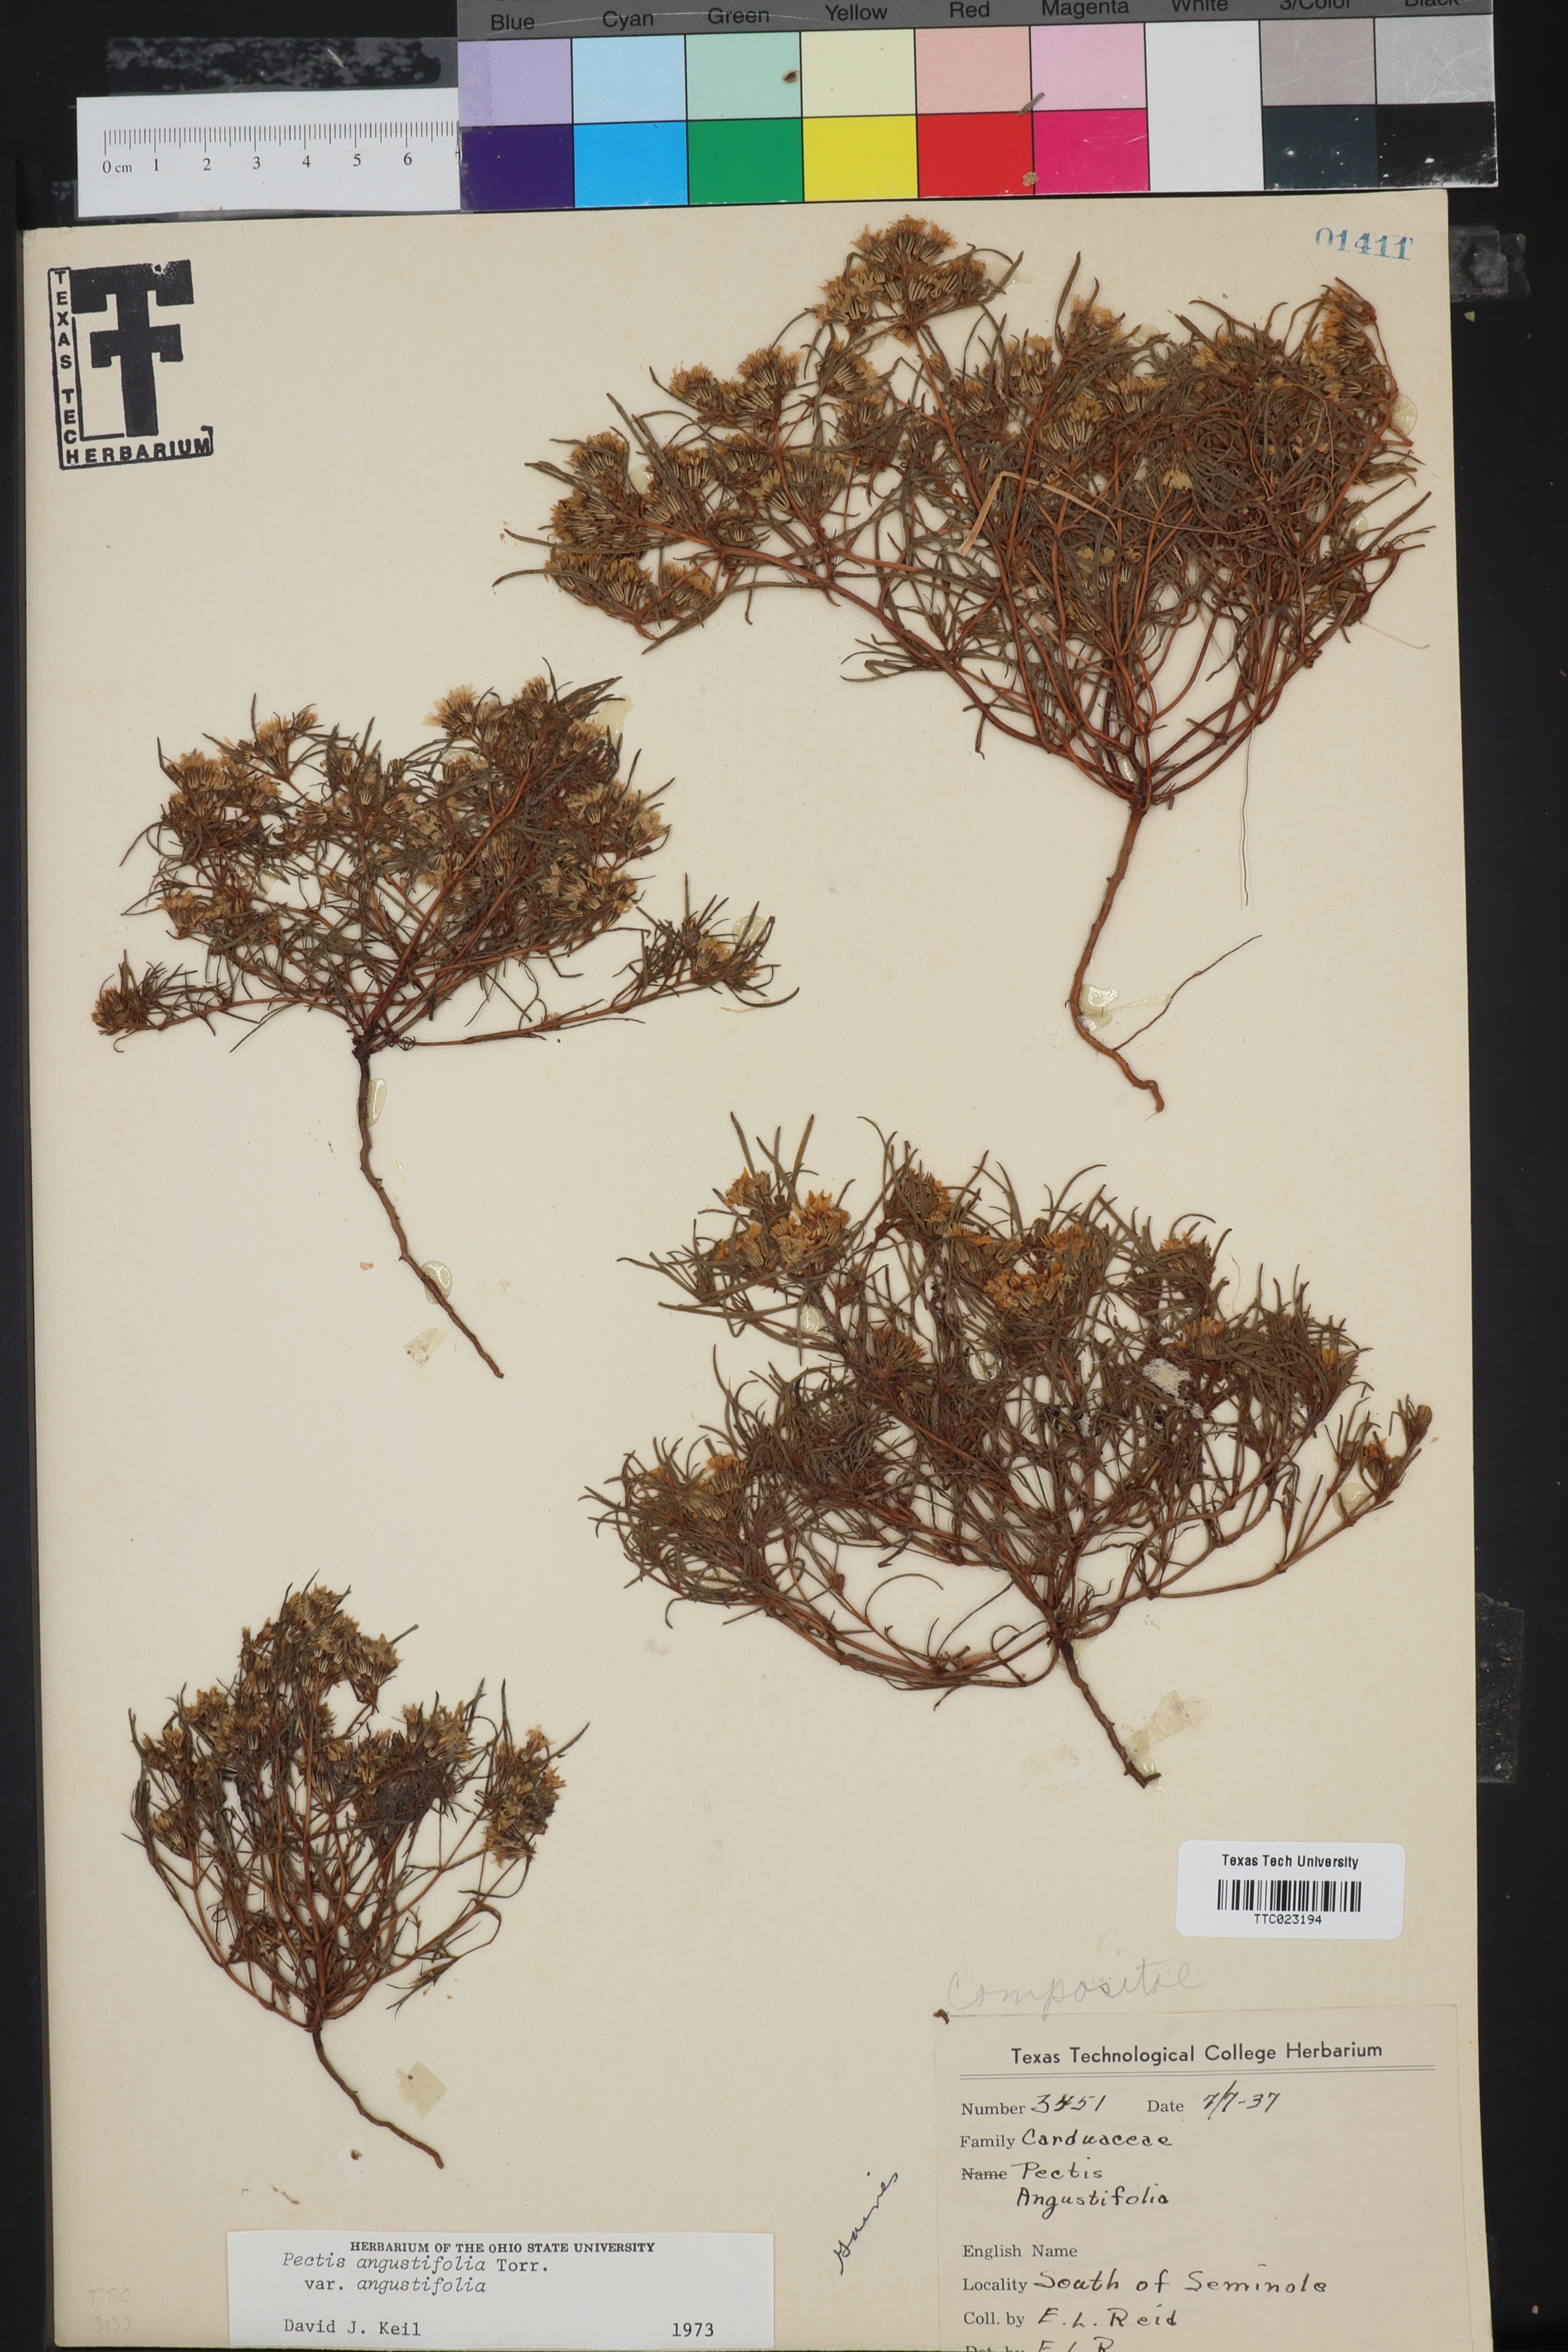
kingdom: Plantae
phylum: Tracheophyta
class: Magnoliopsida
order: Asterales
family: Asteraceae
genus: Pectis
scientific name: Pectis angustifolia
